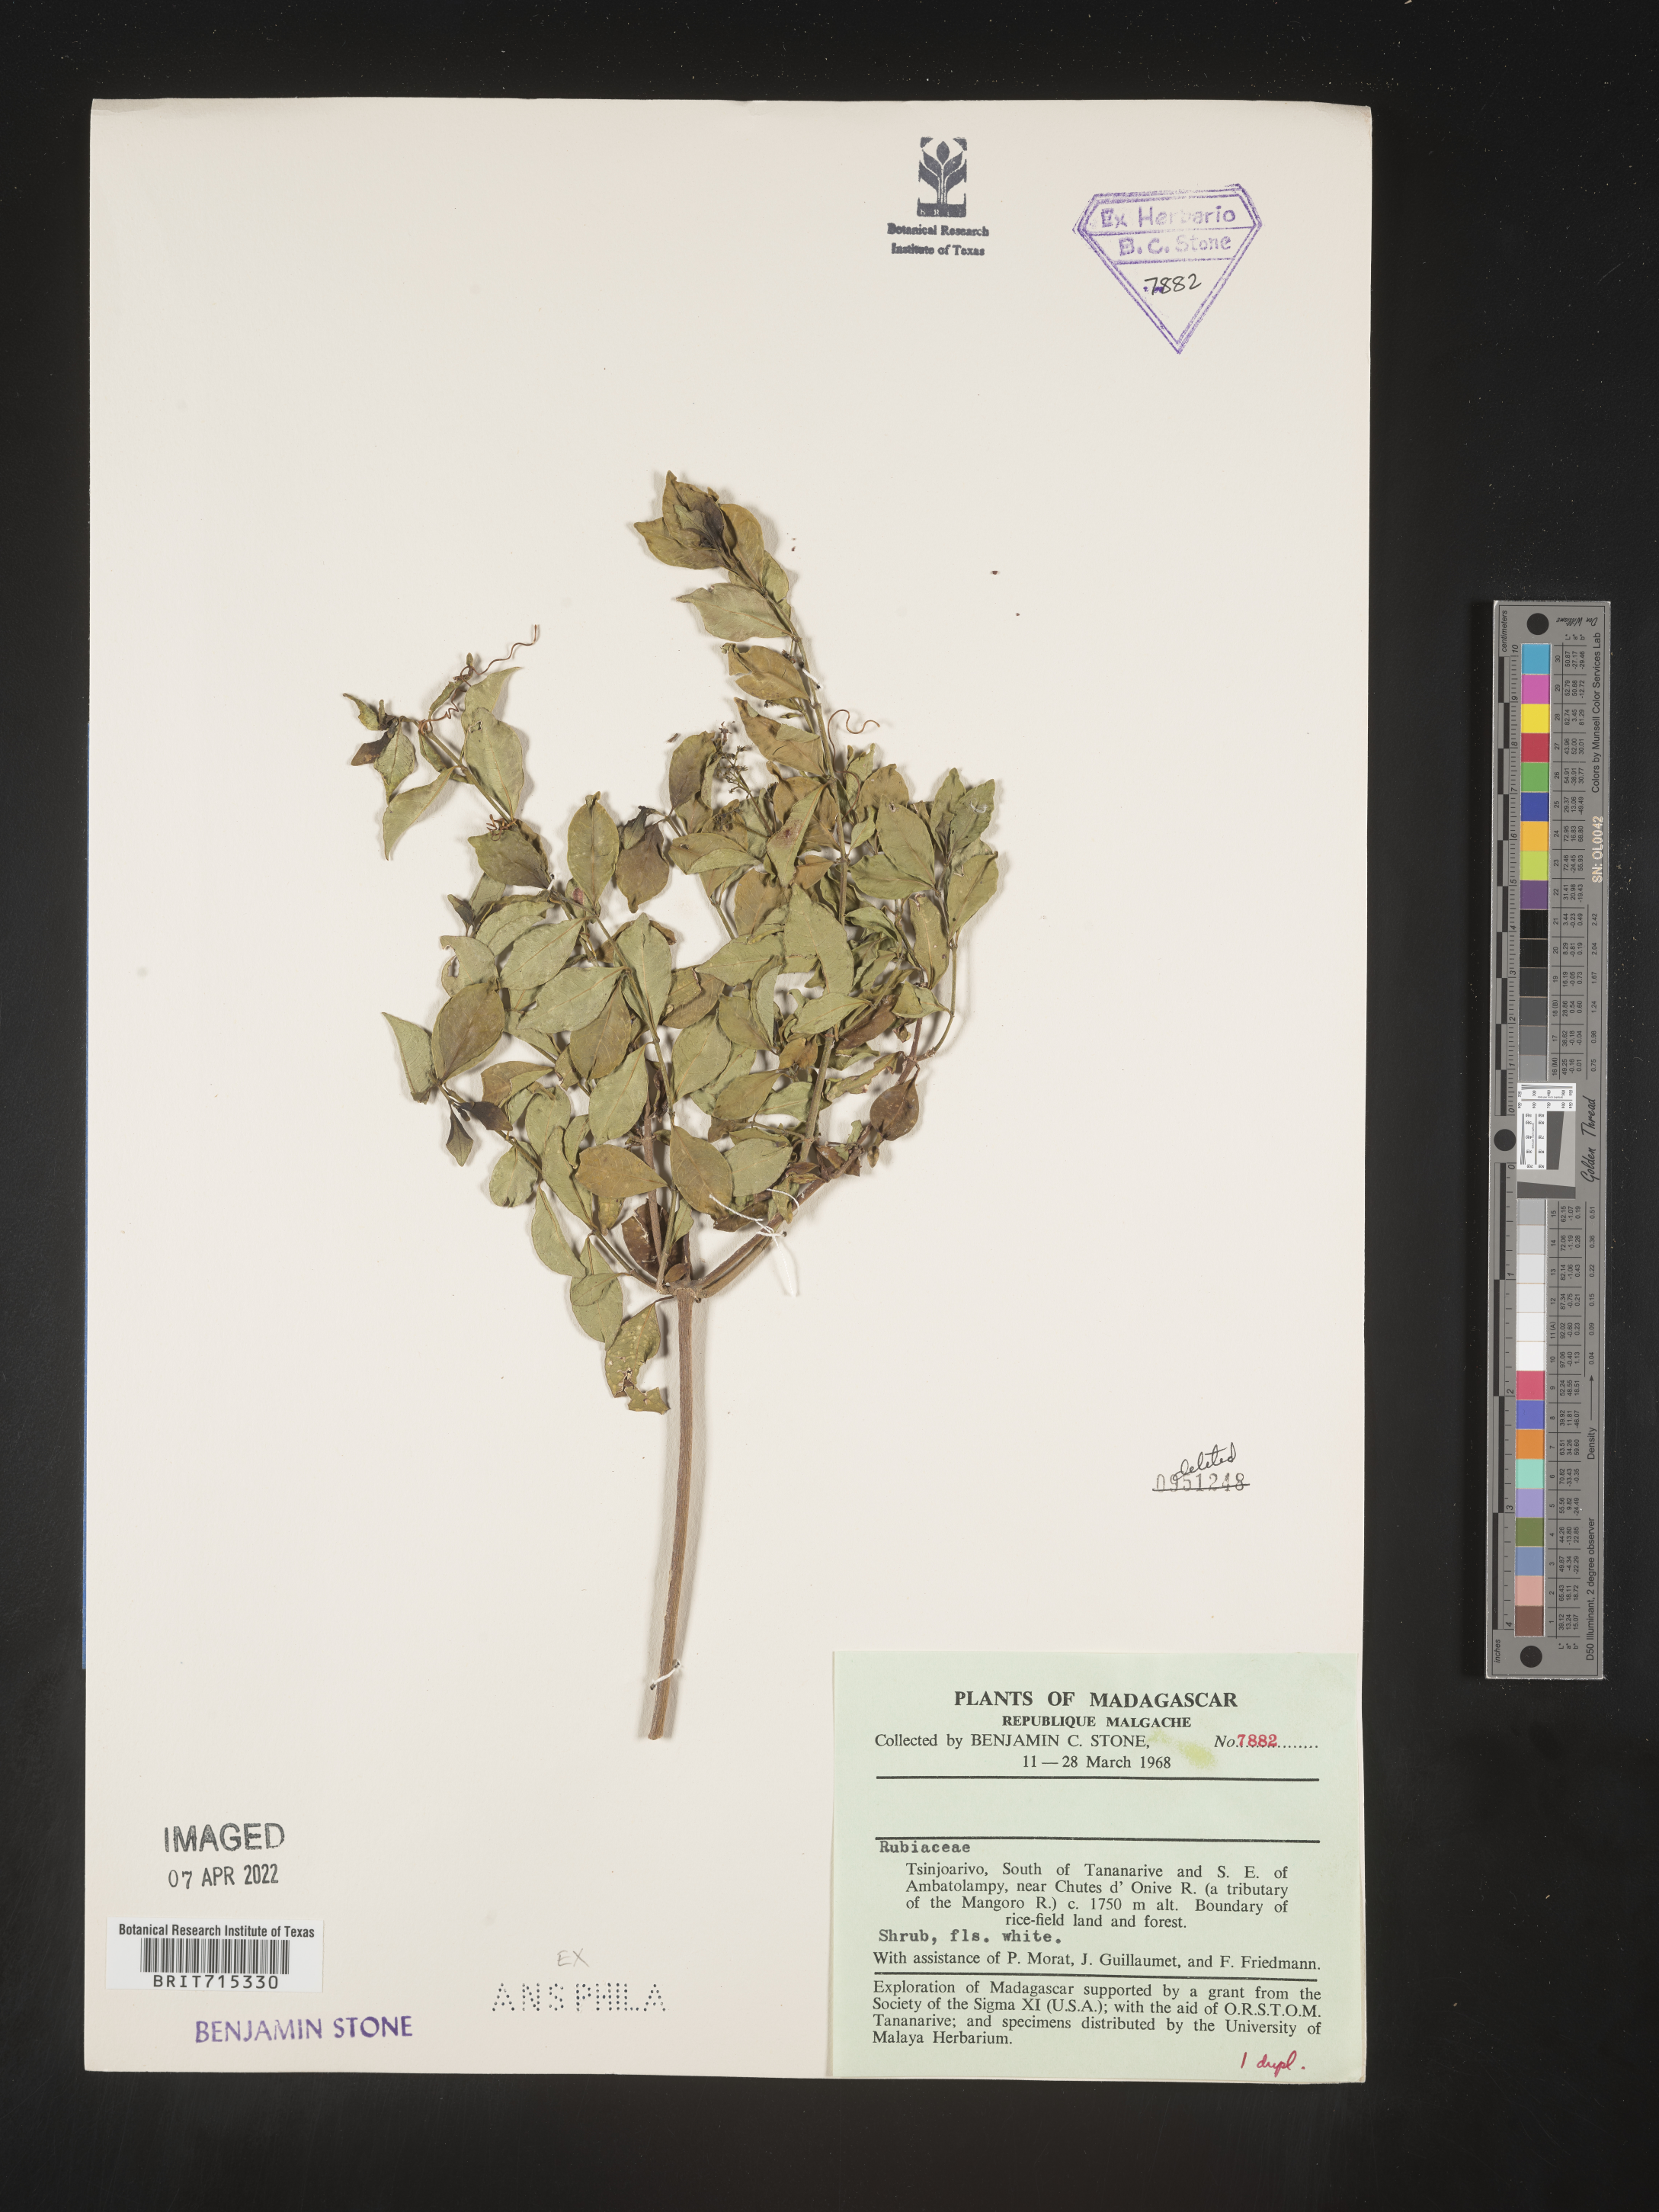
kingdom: Plantae
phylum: Tracheophyta
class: Magnoliopsida
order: Gentianales
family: Rubiaceae
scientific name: Rubiaceae
